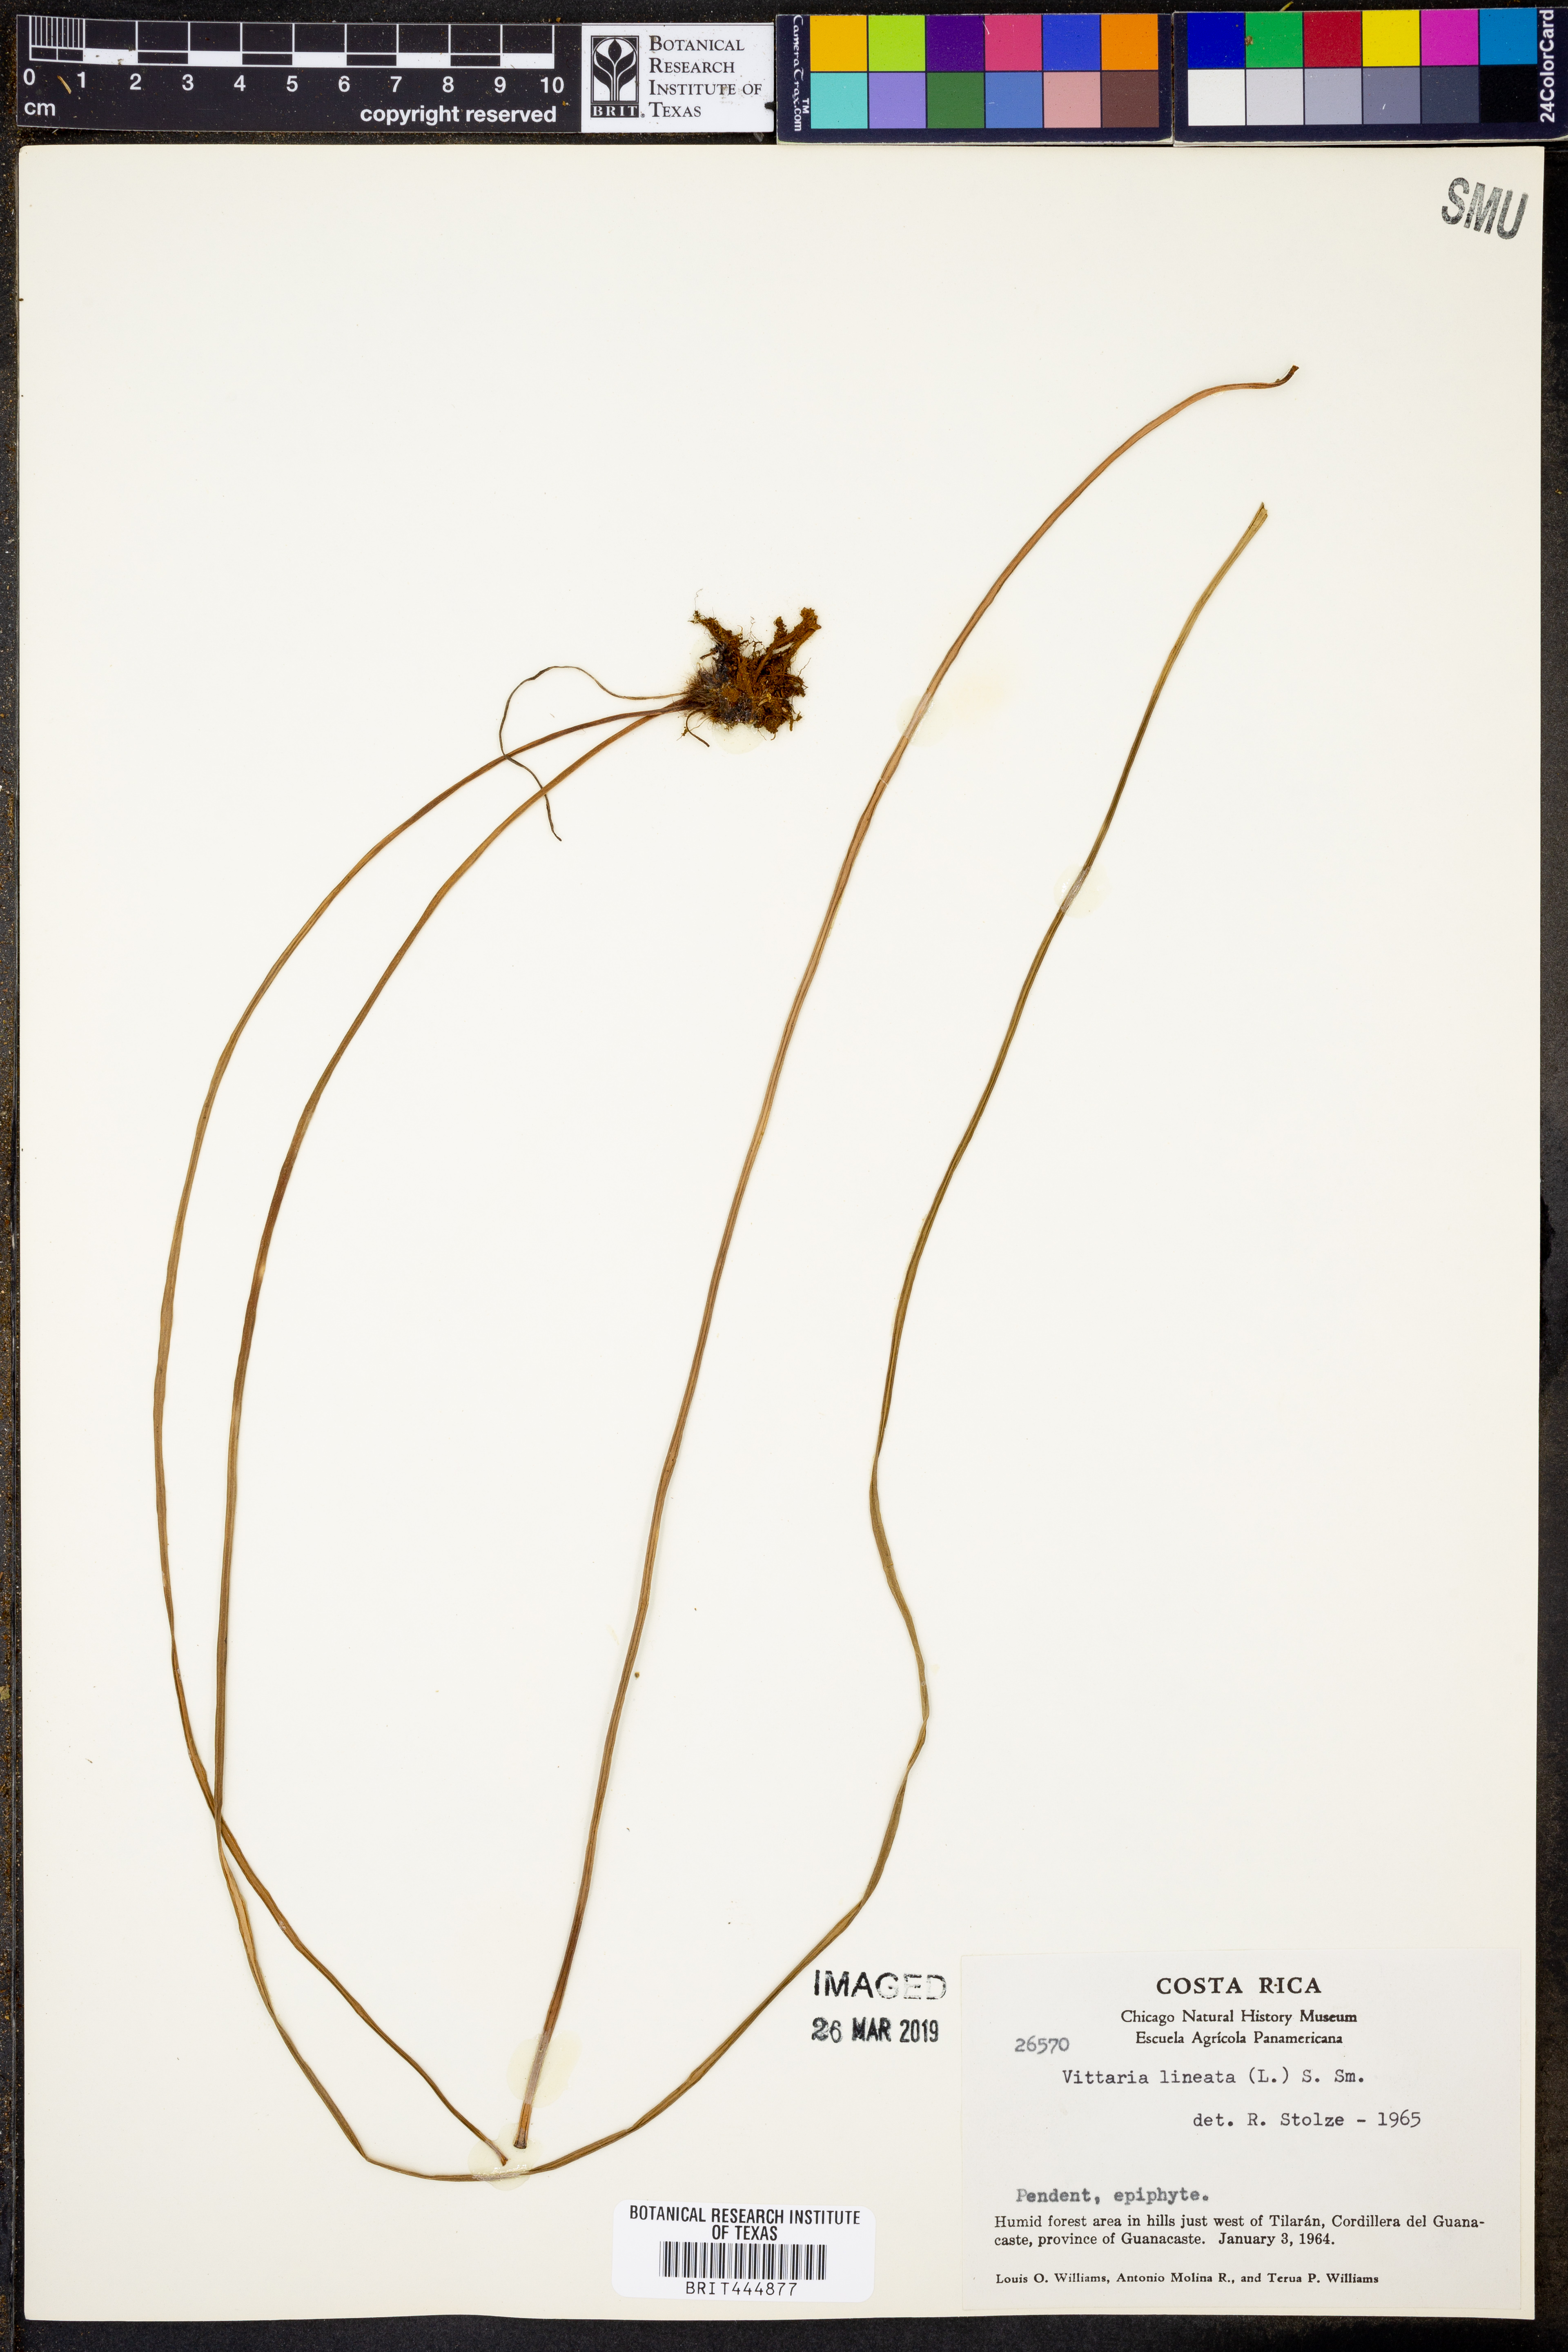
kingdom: Plantae
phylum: Tracheophyta
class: Polypodiopsida
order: Polypodiales
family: Pteridaceae
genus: Vittaria
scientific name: Vittaria lineata
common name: Shoestring fern
